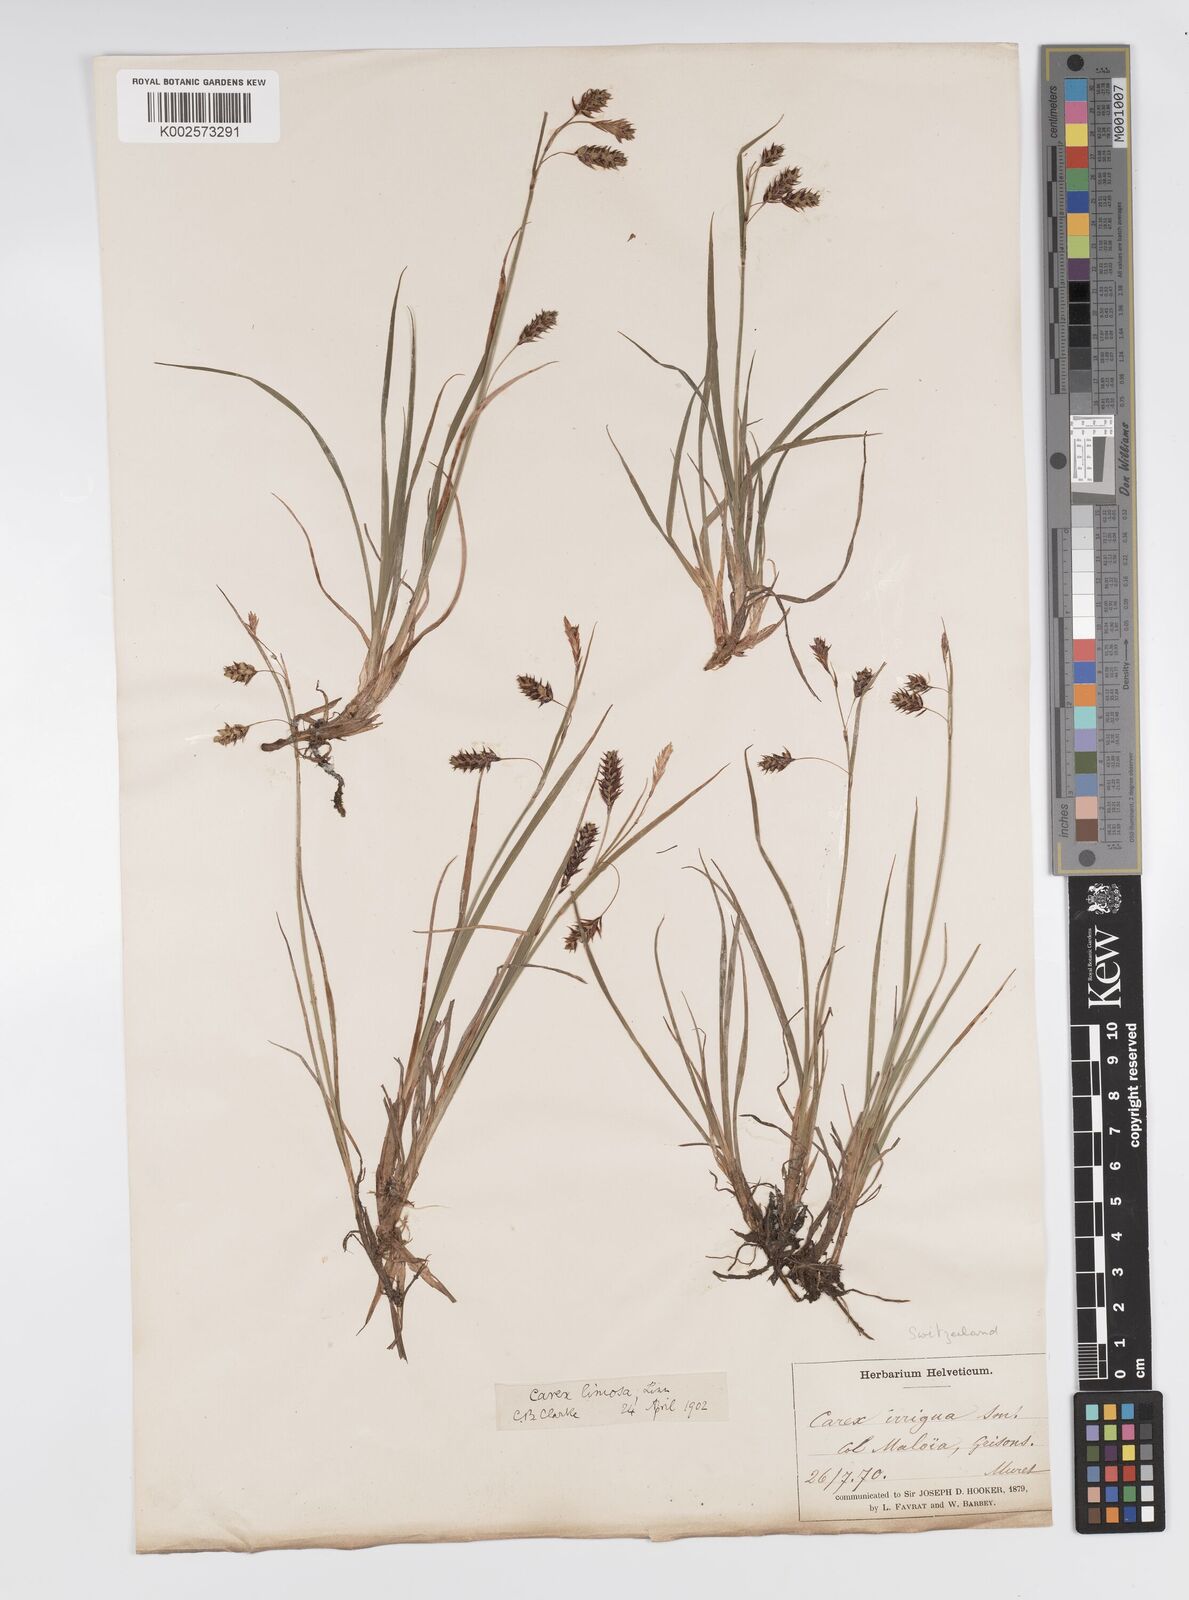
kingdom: Plantae
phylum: Tracheophyta
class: Liliopsida
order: Poales
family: Cyperaceae
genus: Carex
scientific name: Carex magellanica
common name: Bog sedge
